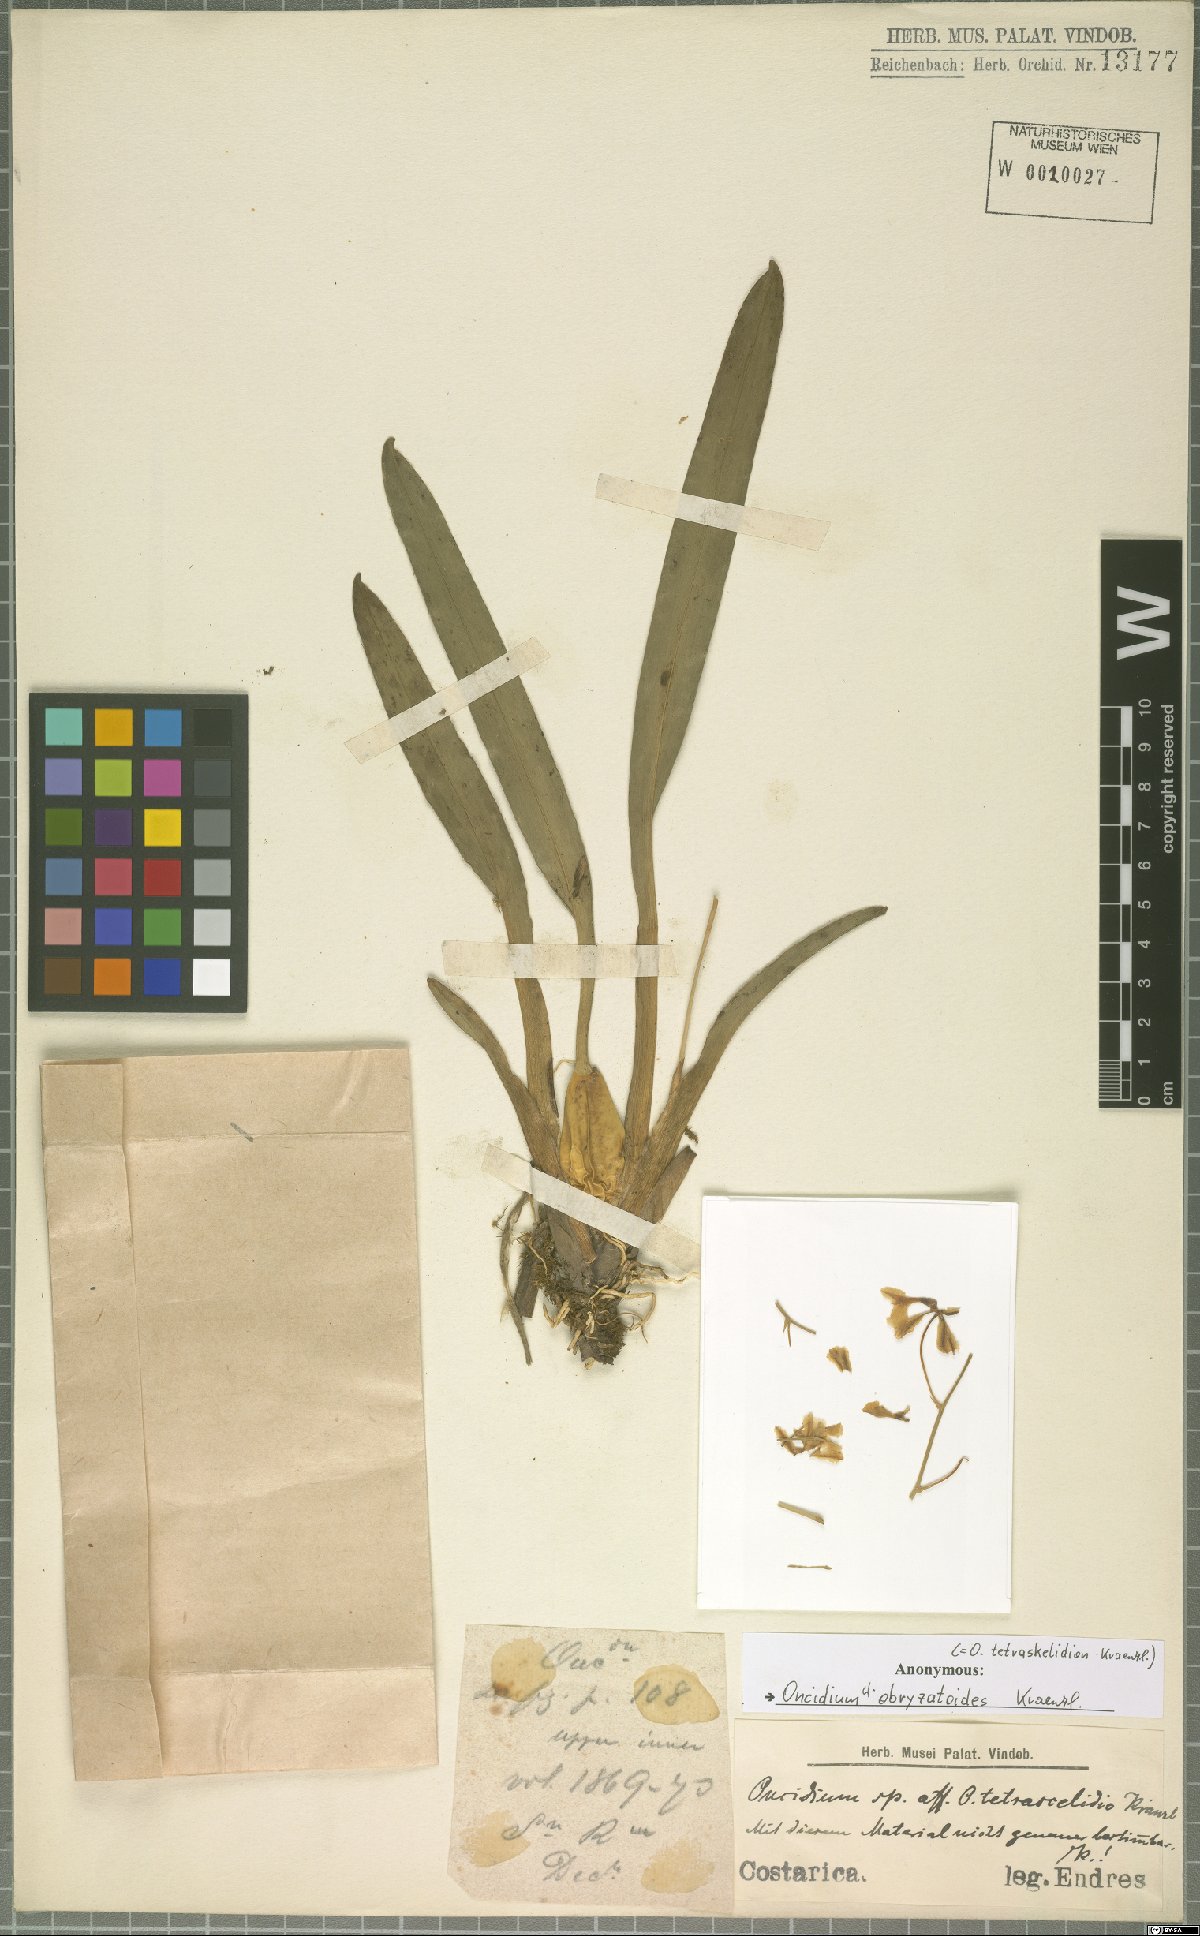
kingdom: Plantae
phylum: Tracheophyta
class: Liliopsida
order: Asparagales
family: Orchidaceae
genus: Oncidium
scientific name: Oncidium obryzatoides
